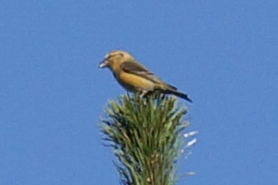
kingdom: Animalia
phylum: Chordata
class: Aves
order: Passeriformes
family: Fringillidae
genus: Loxia
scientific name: Loxia curvirostra
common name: Lille korsnæb
